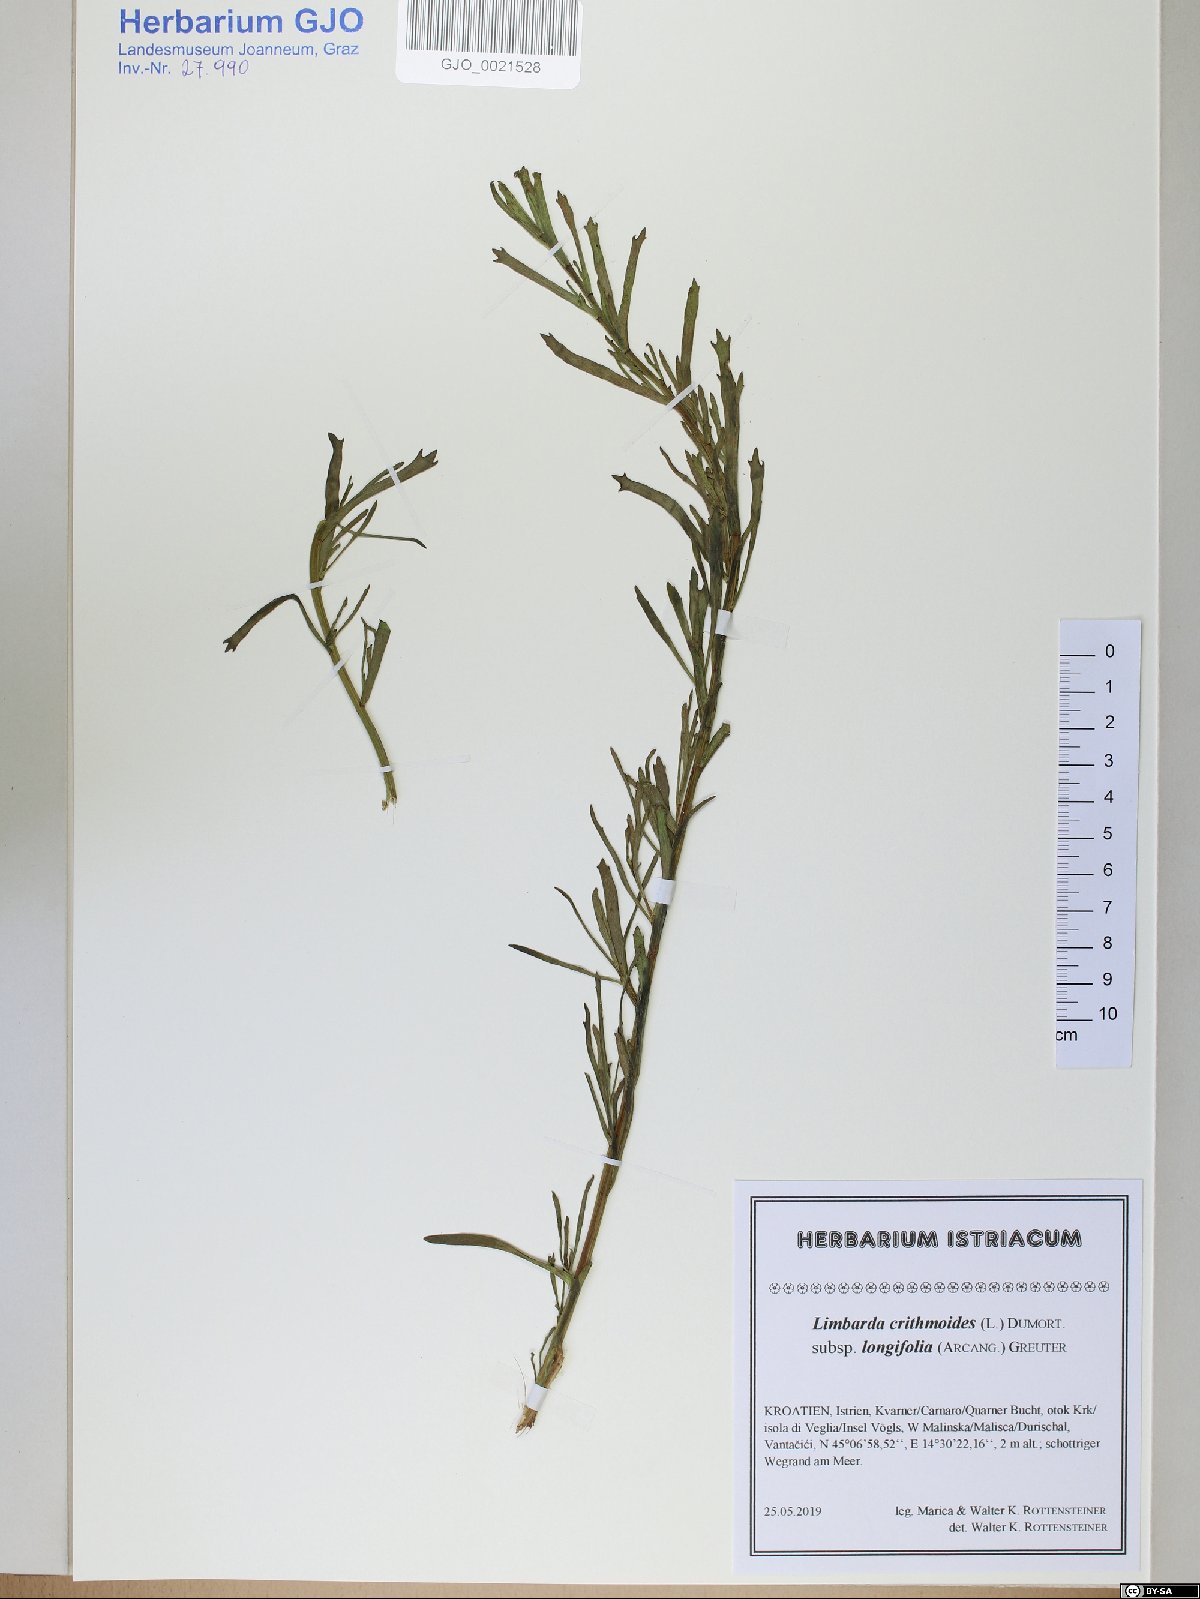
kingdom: Plantae
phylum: Tracheophyta
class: Magnoliopsida
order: Asterales
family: Asteraceae
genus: Limbarda
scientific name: Limbarda crithmoides
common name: Golden samphire
